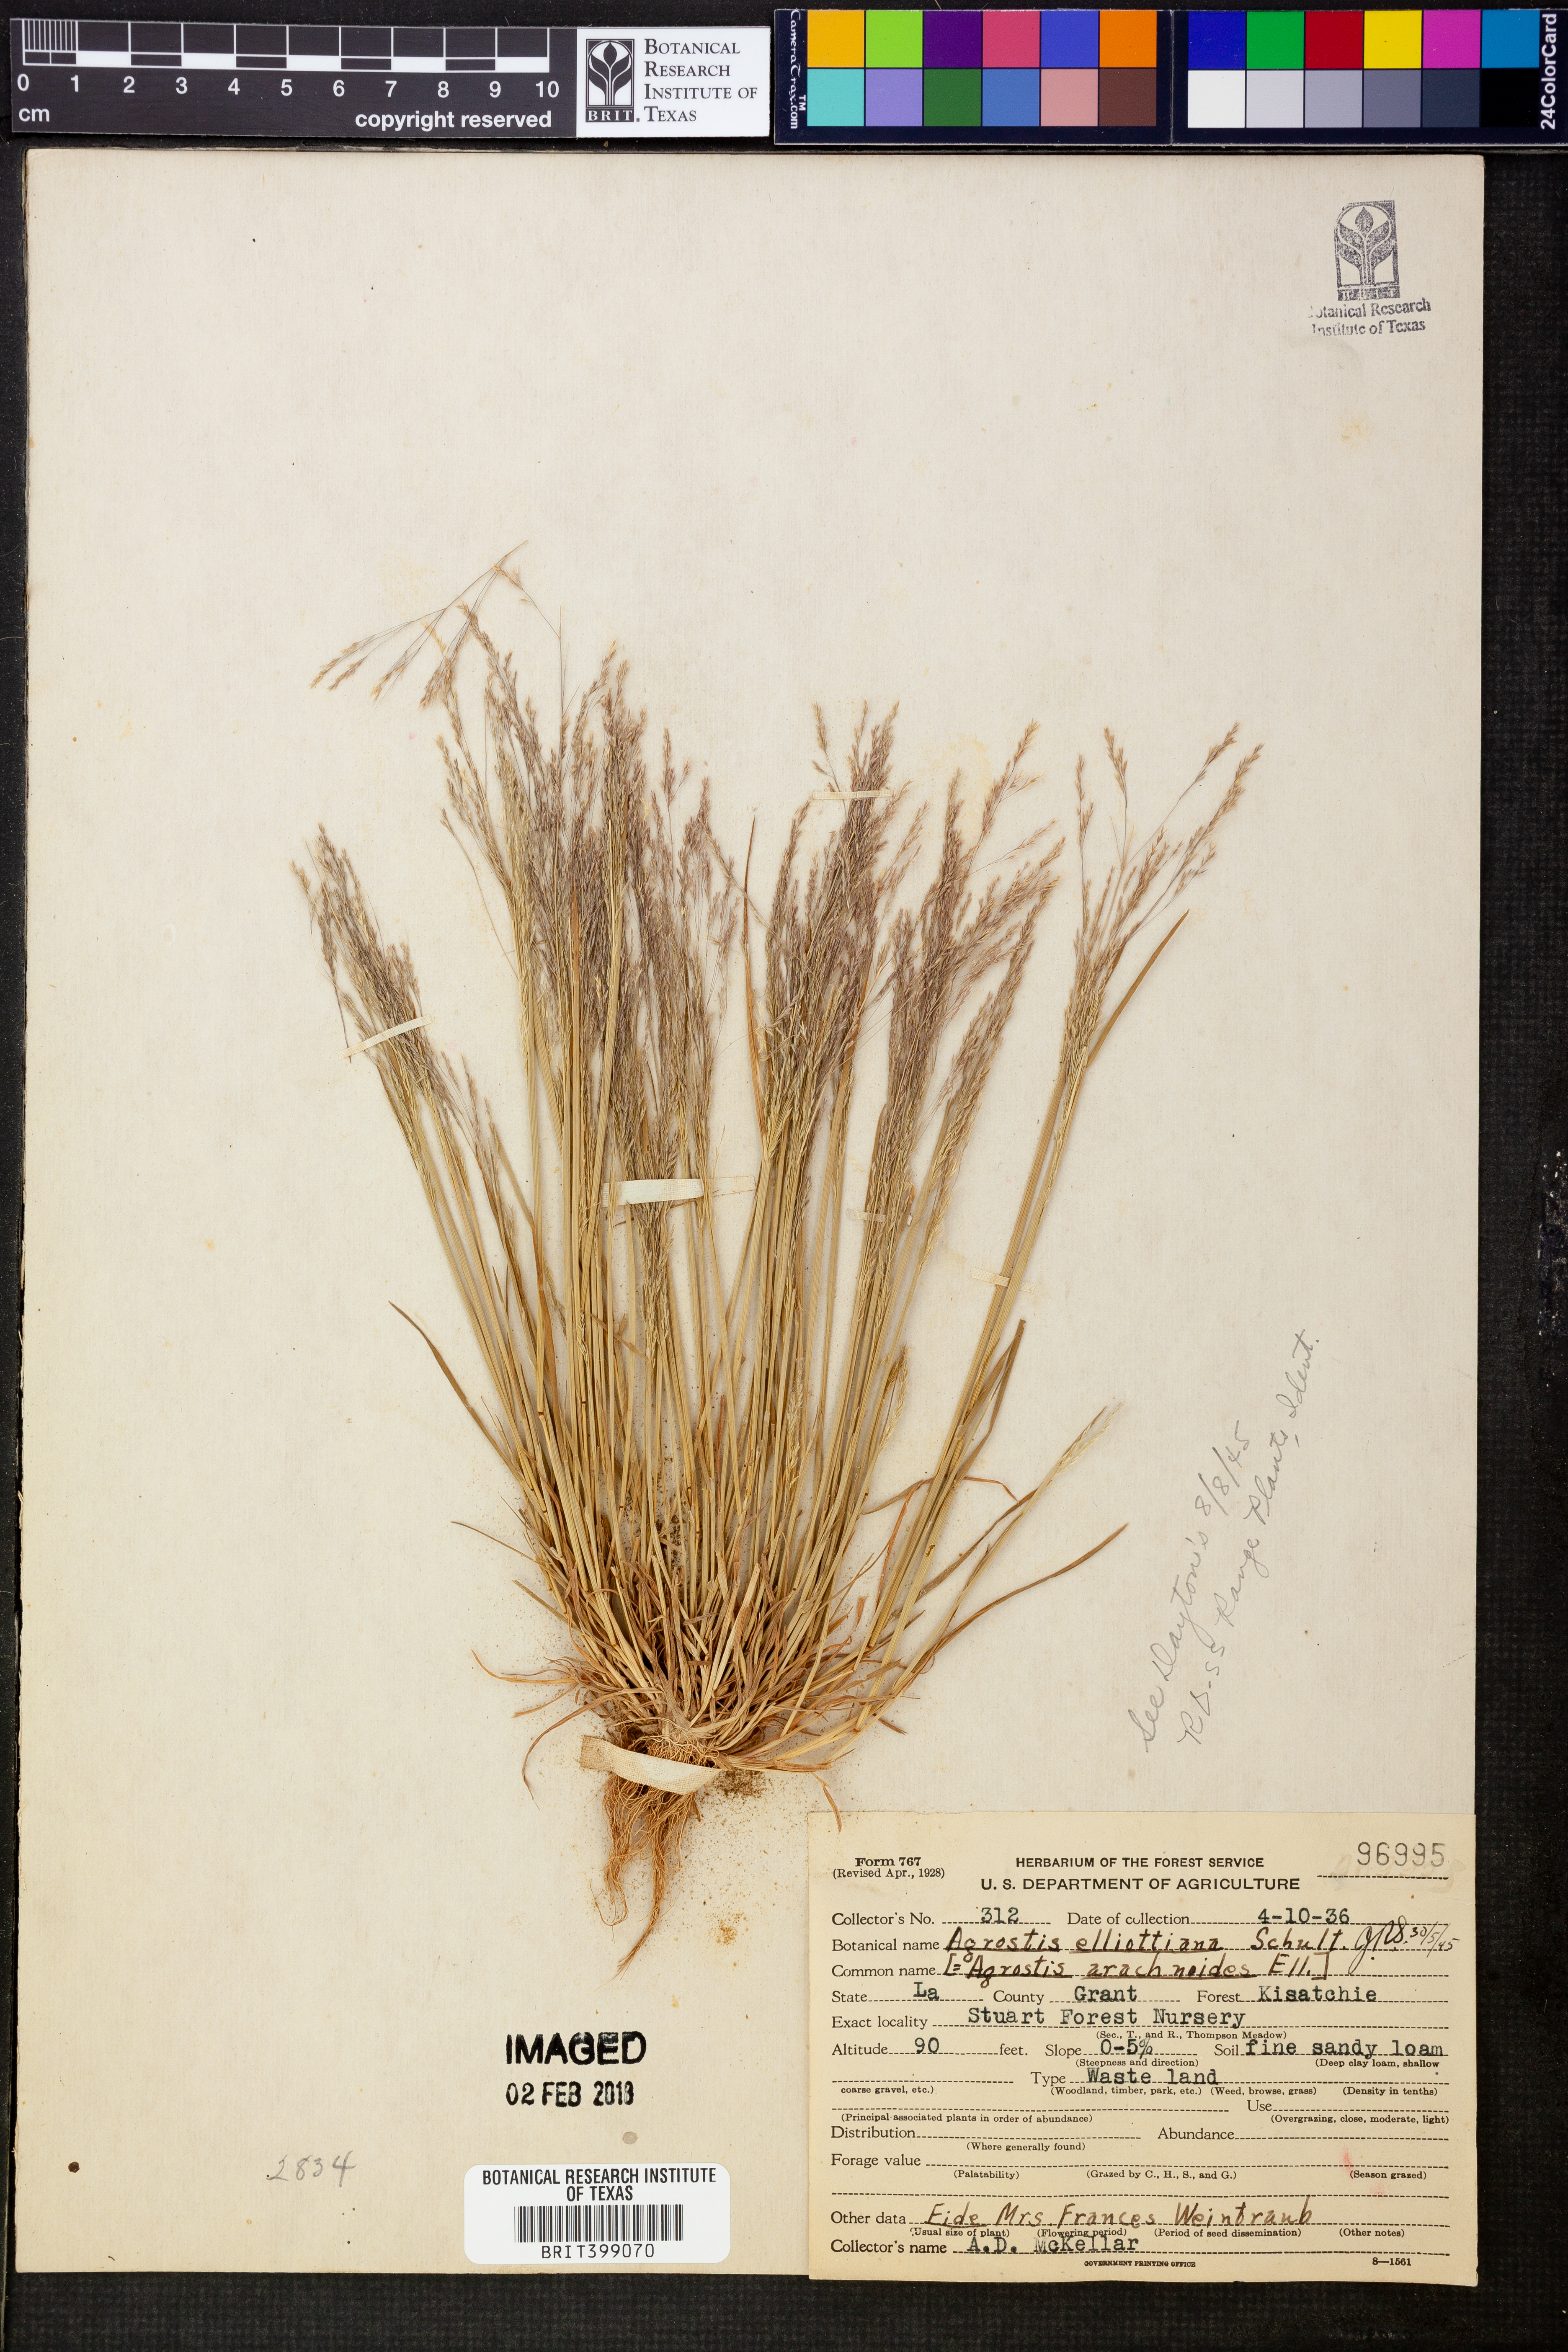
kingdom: Plantae
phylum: Tracheophyta
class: Liliopsida
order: Poales
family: Poaceae
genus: Agrostis
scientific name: Agrostis elliottiana
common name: Elliott's bent
